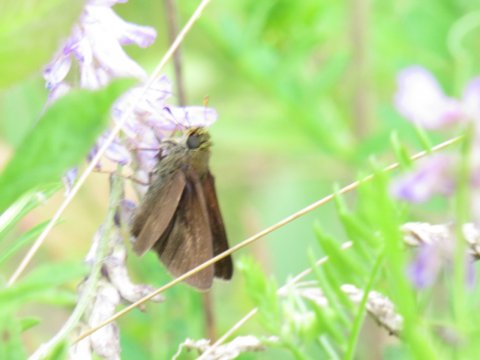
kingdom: Animalia
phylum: Arthropoda
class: Insecta
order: Lepidoptera
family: Hesperiidae
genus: Euphyes
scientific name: Euphyes vestris
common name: Dun Skipper
